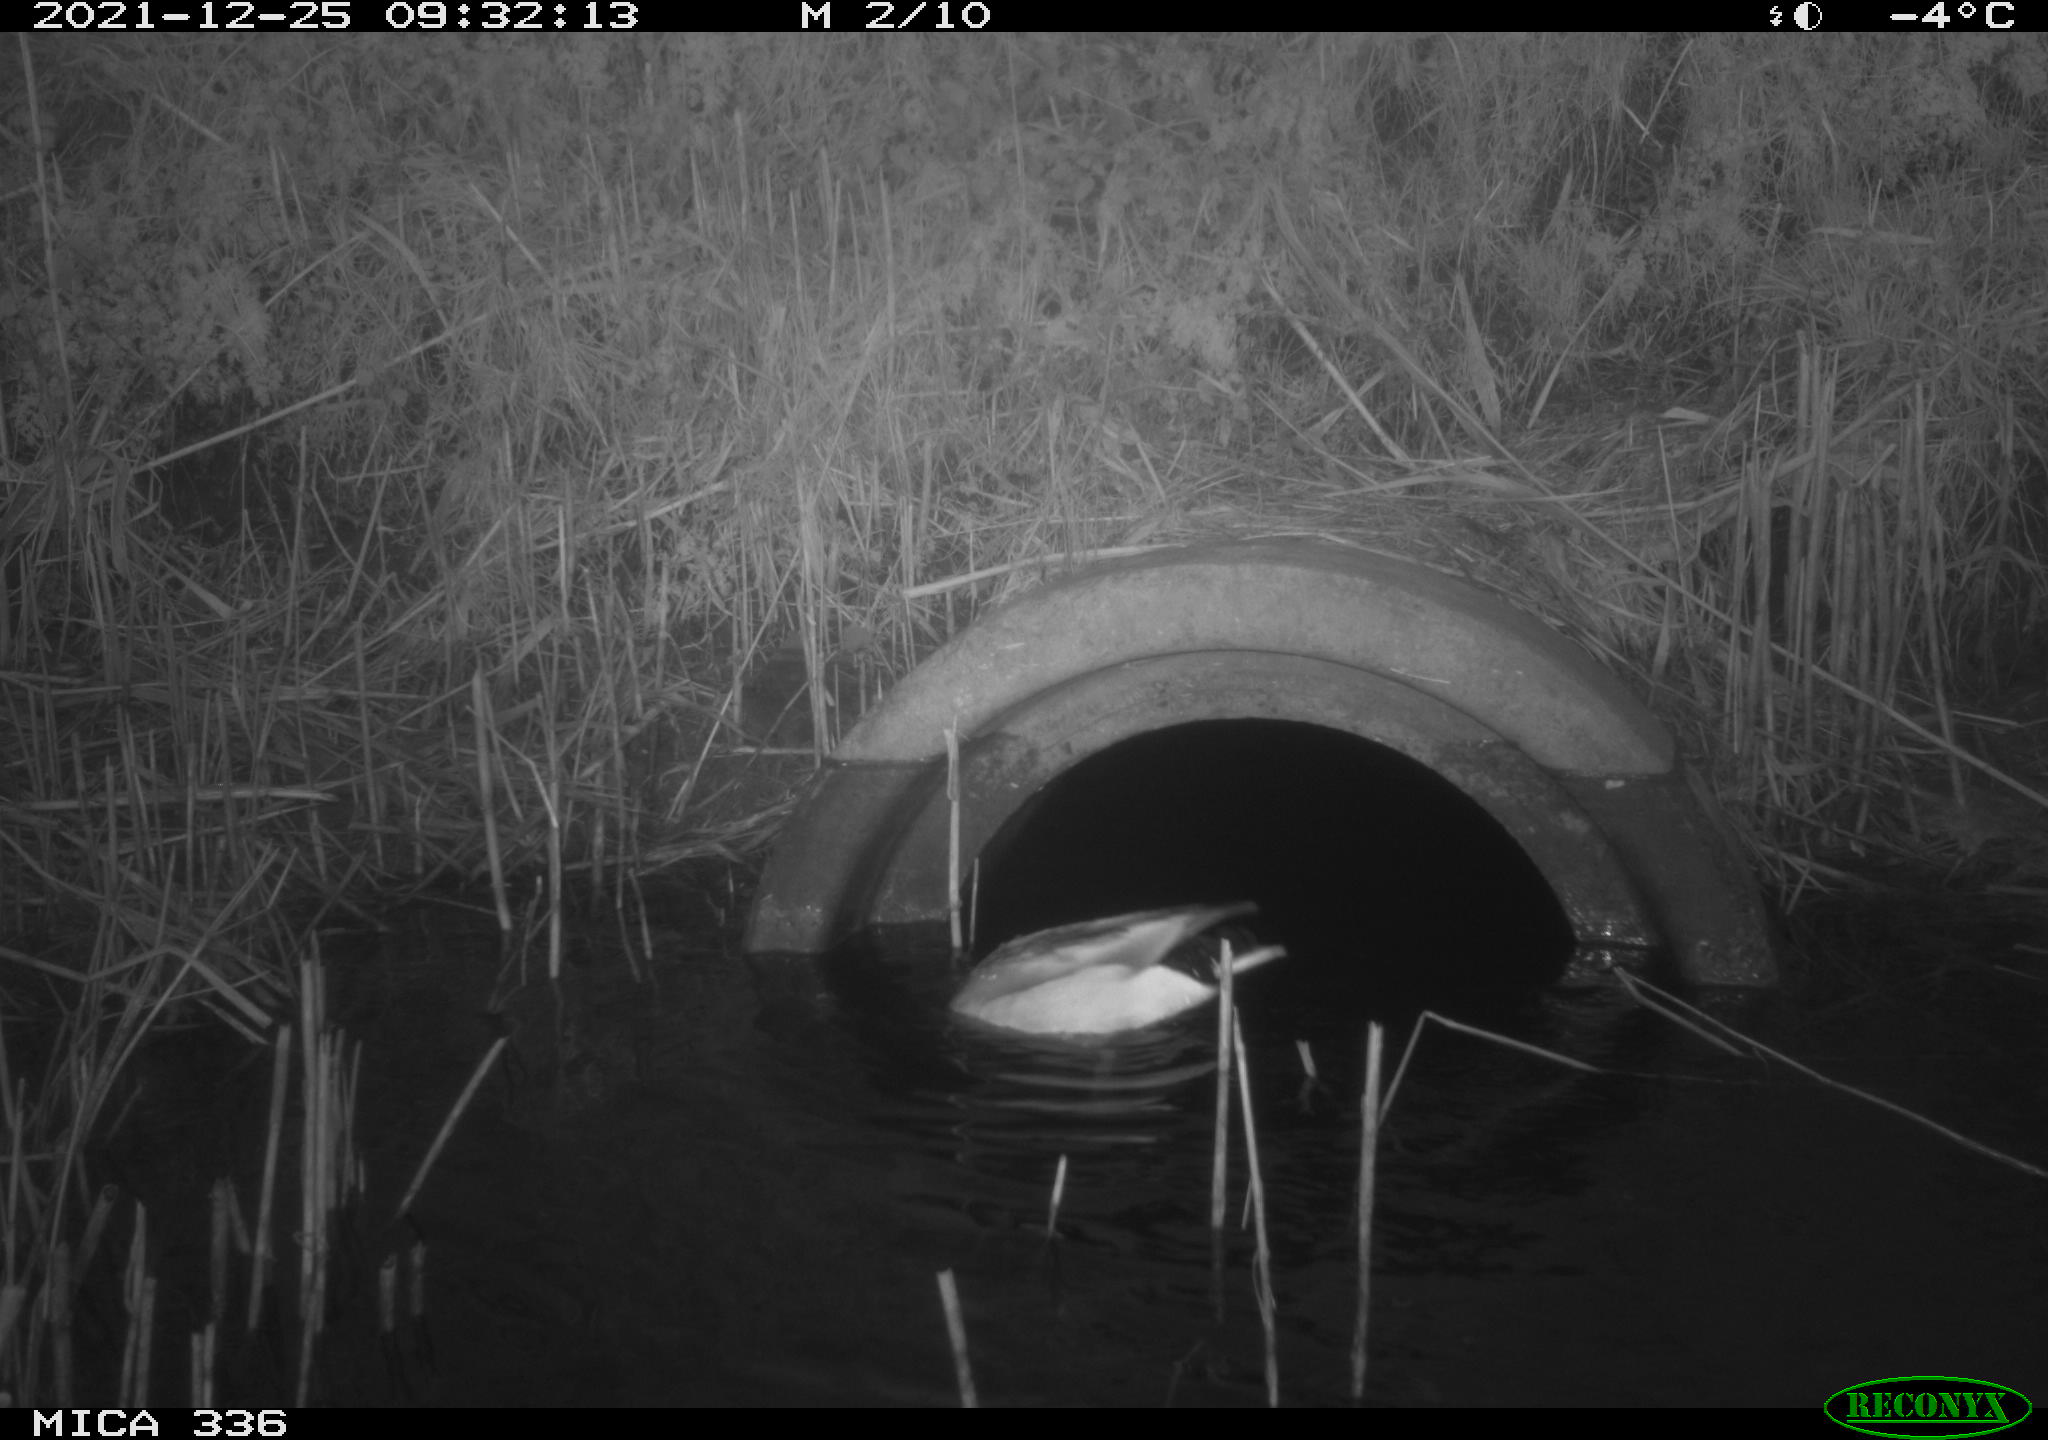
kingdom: Animalia
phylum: Chordata
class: Aves
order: Anseriformes
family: Anatidae
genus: Anas
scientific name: Anas platyrhynchos
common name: Mallard
